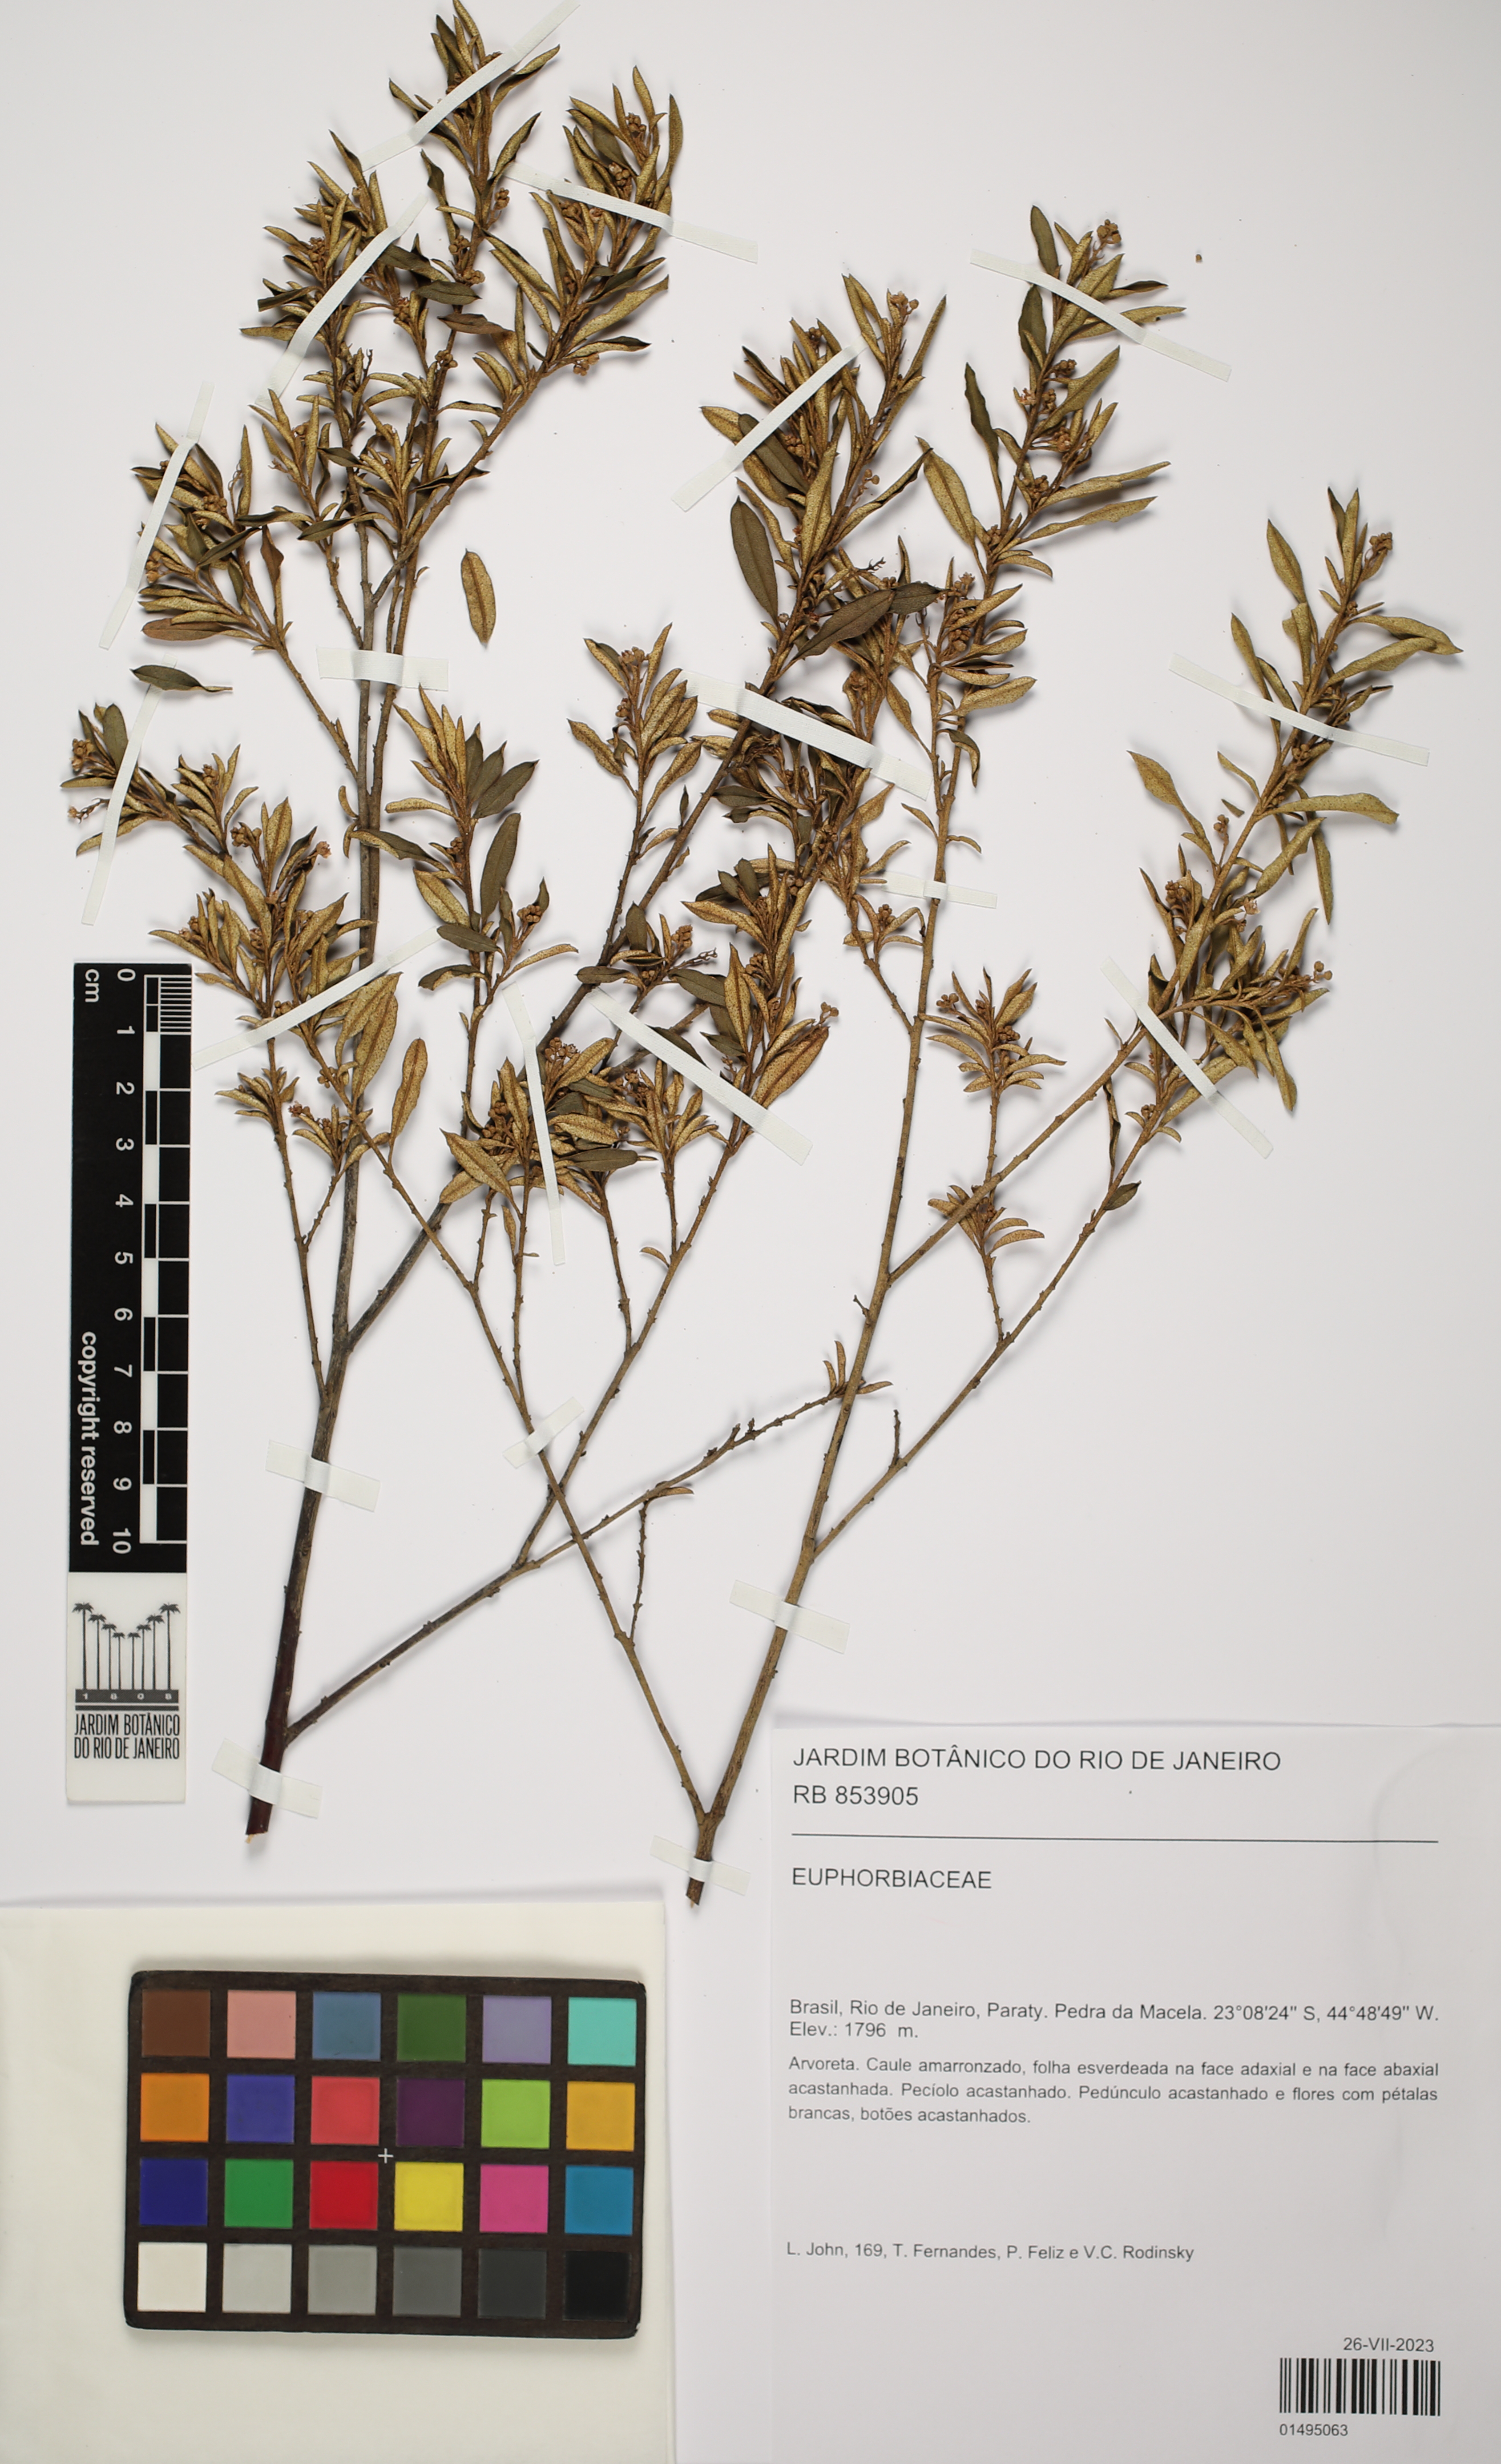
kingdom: Plantae
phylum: Tracheophyta
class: Magnoliopsida
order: Malpighiales
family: Euphorbiaceae
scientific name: Euphorbiaceae
